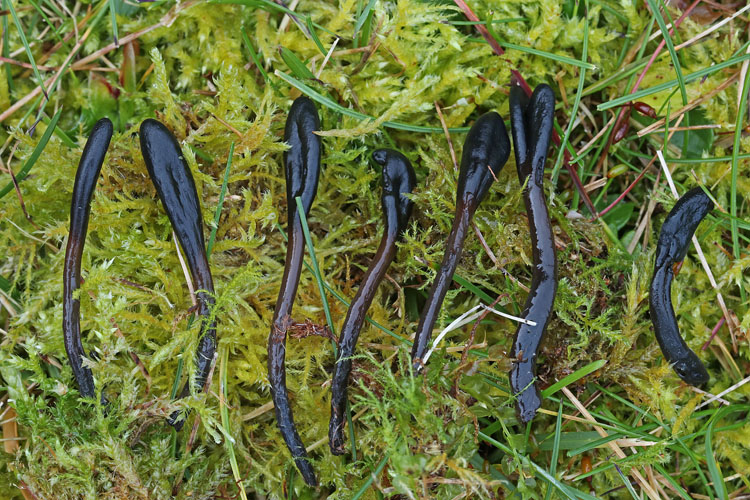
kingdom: Fungi
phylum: Ascomycota
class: Geoglossomycetes
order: Geoglossales
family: Geoglossaceae
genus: Glutinoglossum
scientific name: Glutinoglossum glutinosum
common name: slimet jordtunge
